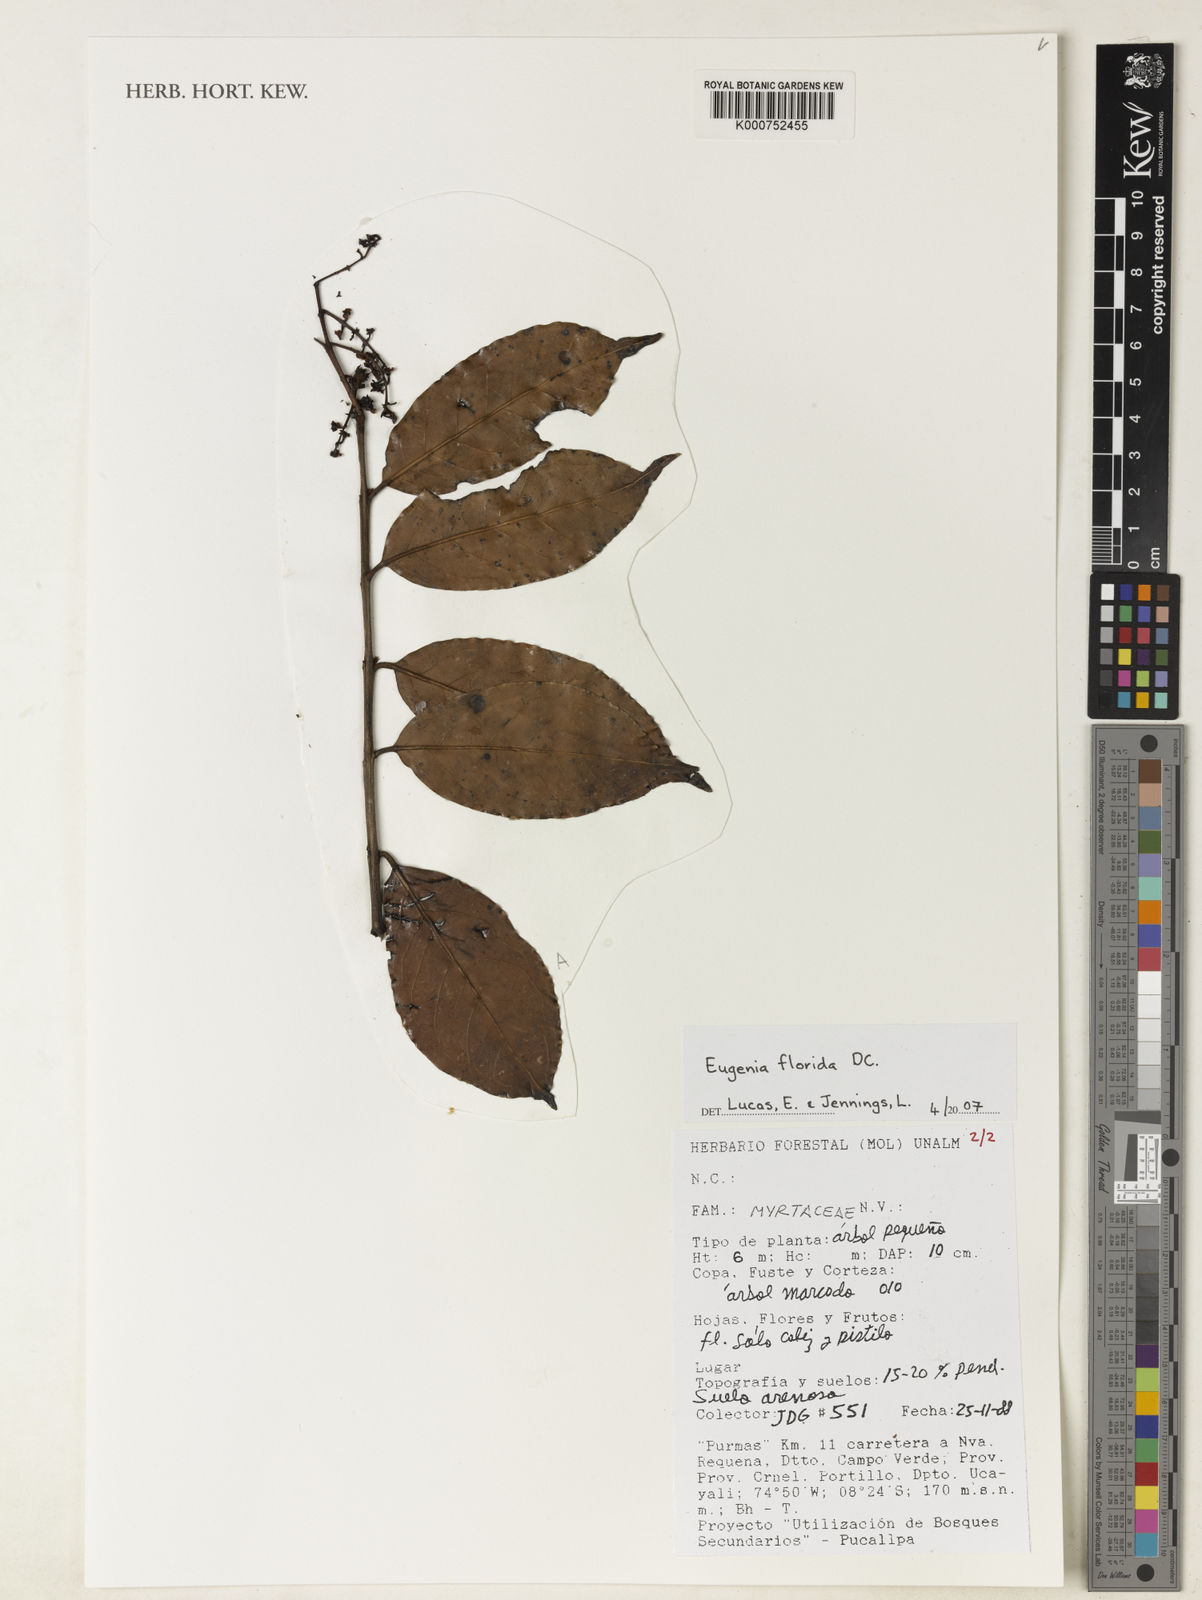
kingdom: Plantae
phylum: Tracheophyta
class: Magnoliopsida
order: Myrtales
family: Myrtaceae
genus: Eugenia
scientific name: Eugenia florida
